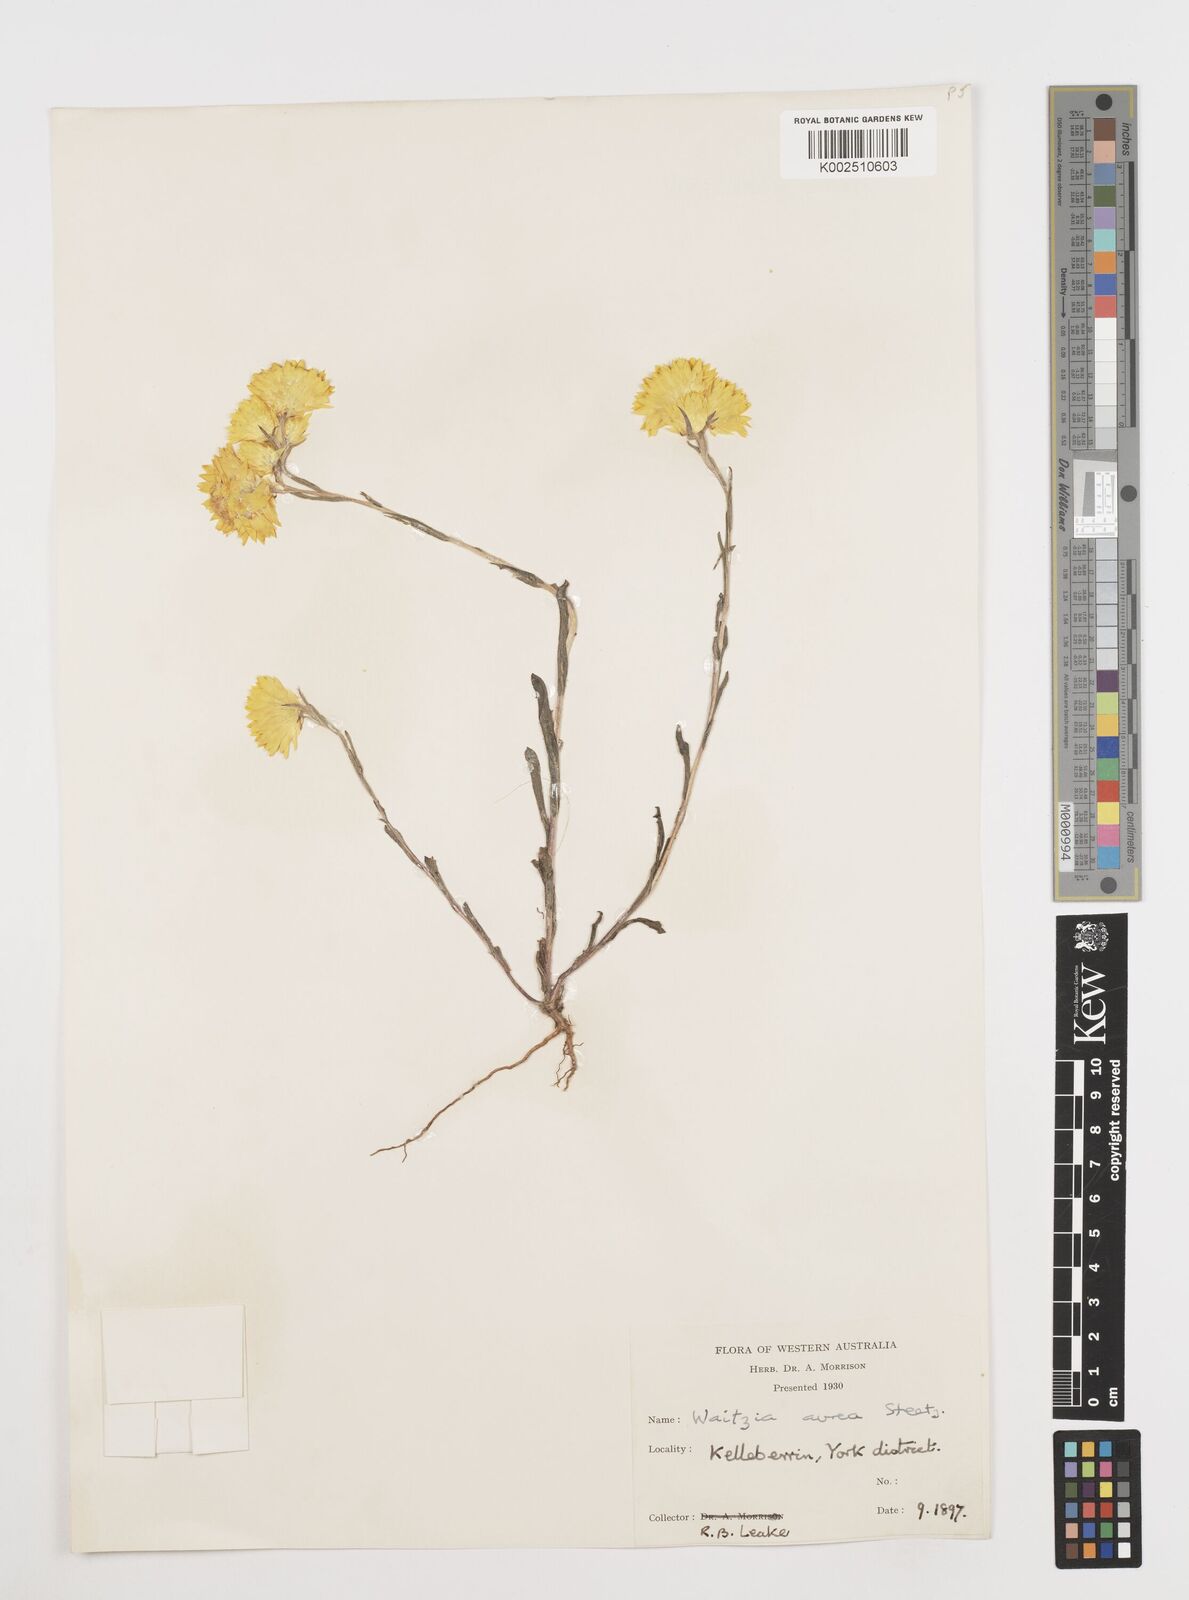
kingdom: Plantae
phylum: Tracheophyta
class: Magnoliopsida
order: Asterales
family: Asteraceae
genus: Waitzia
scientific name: Waitzia nitida
